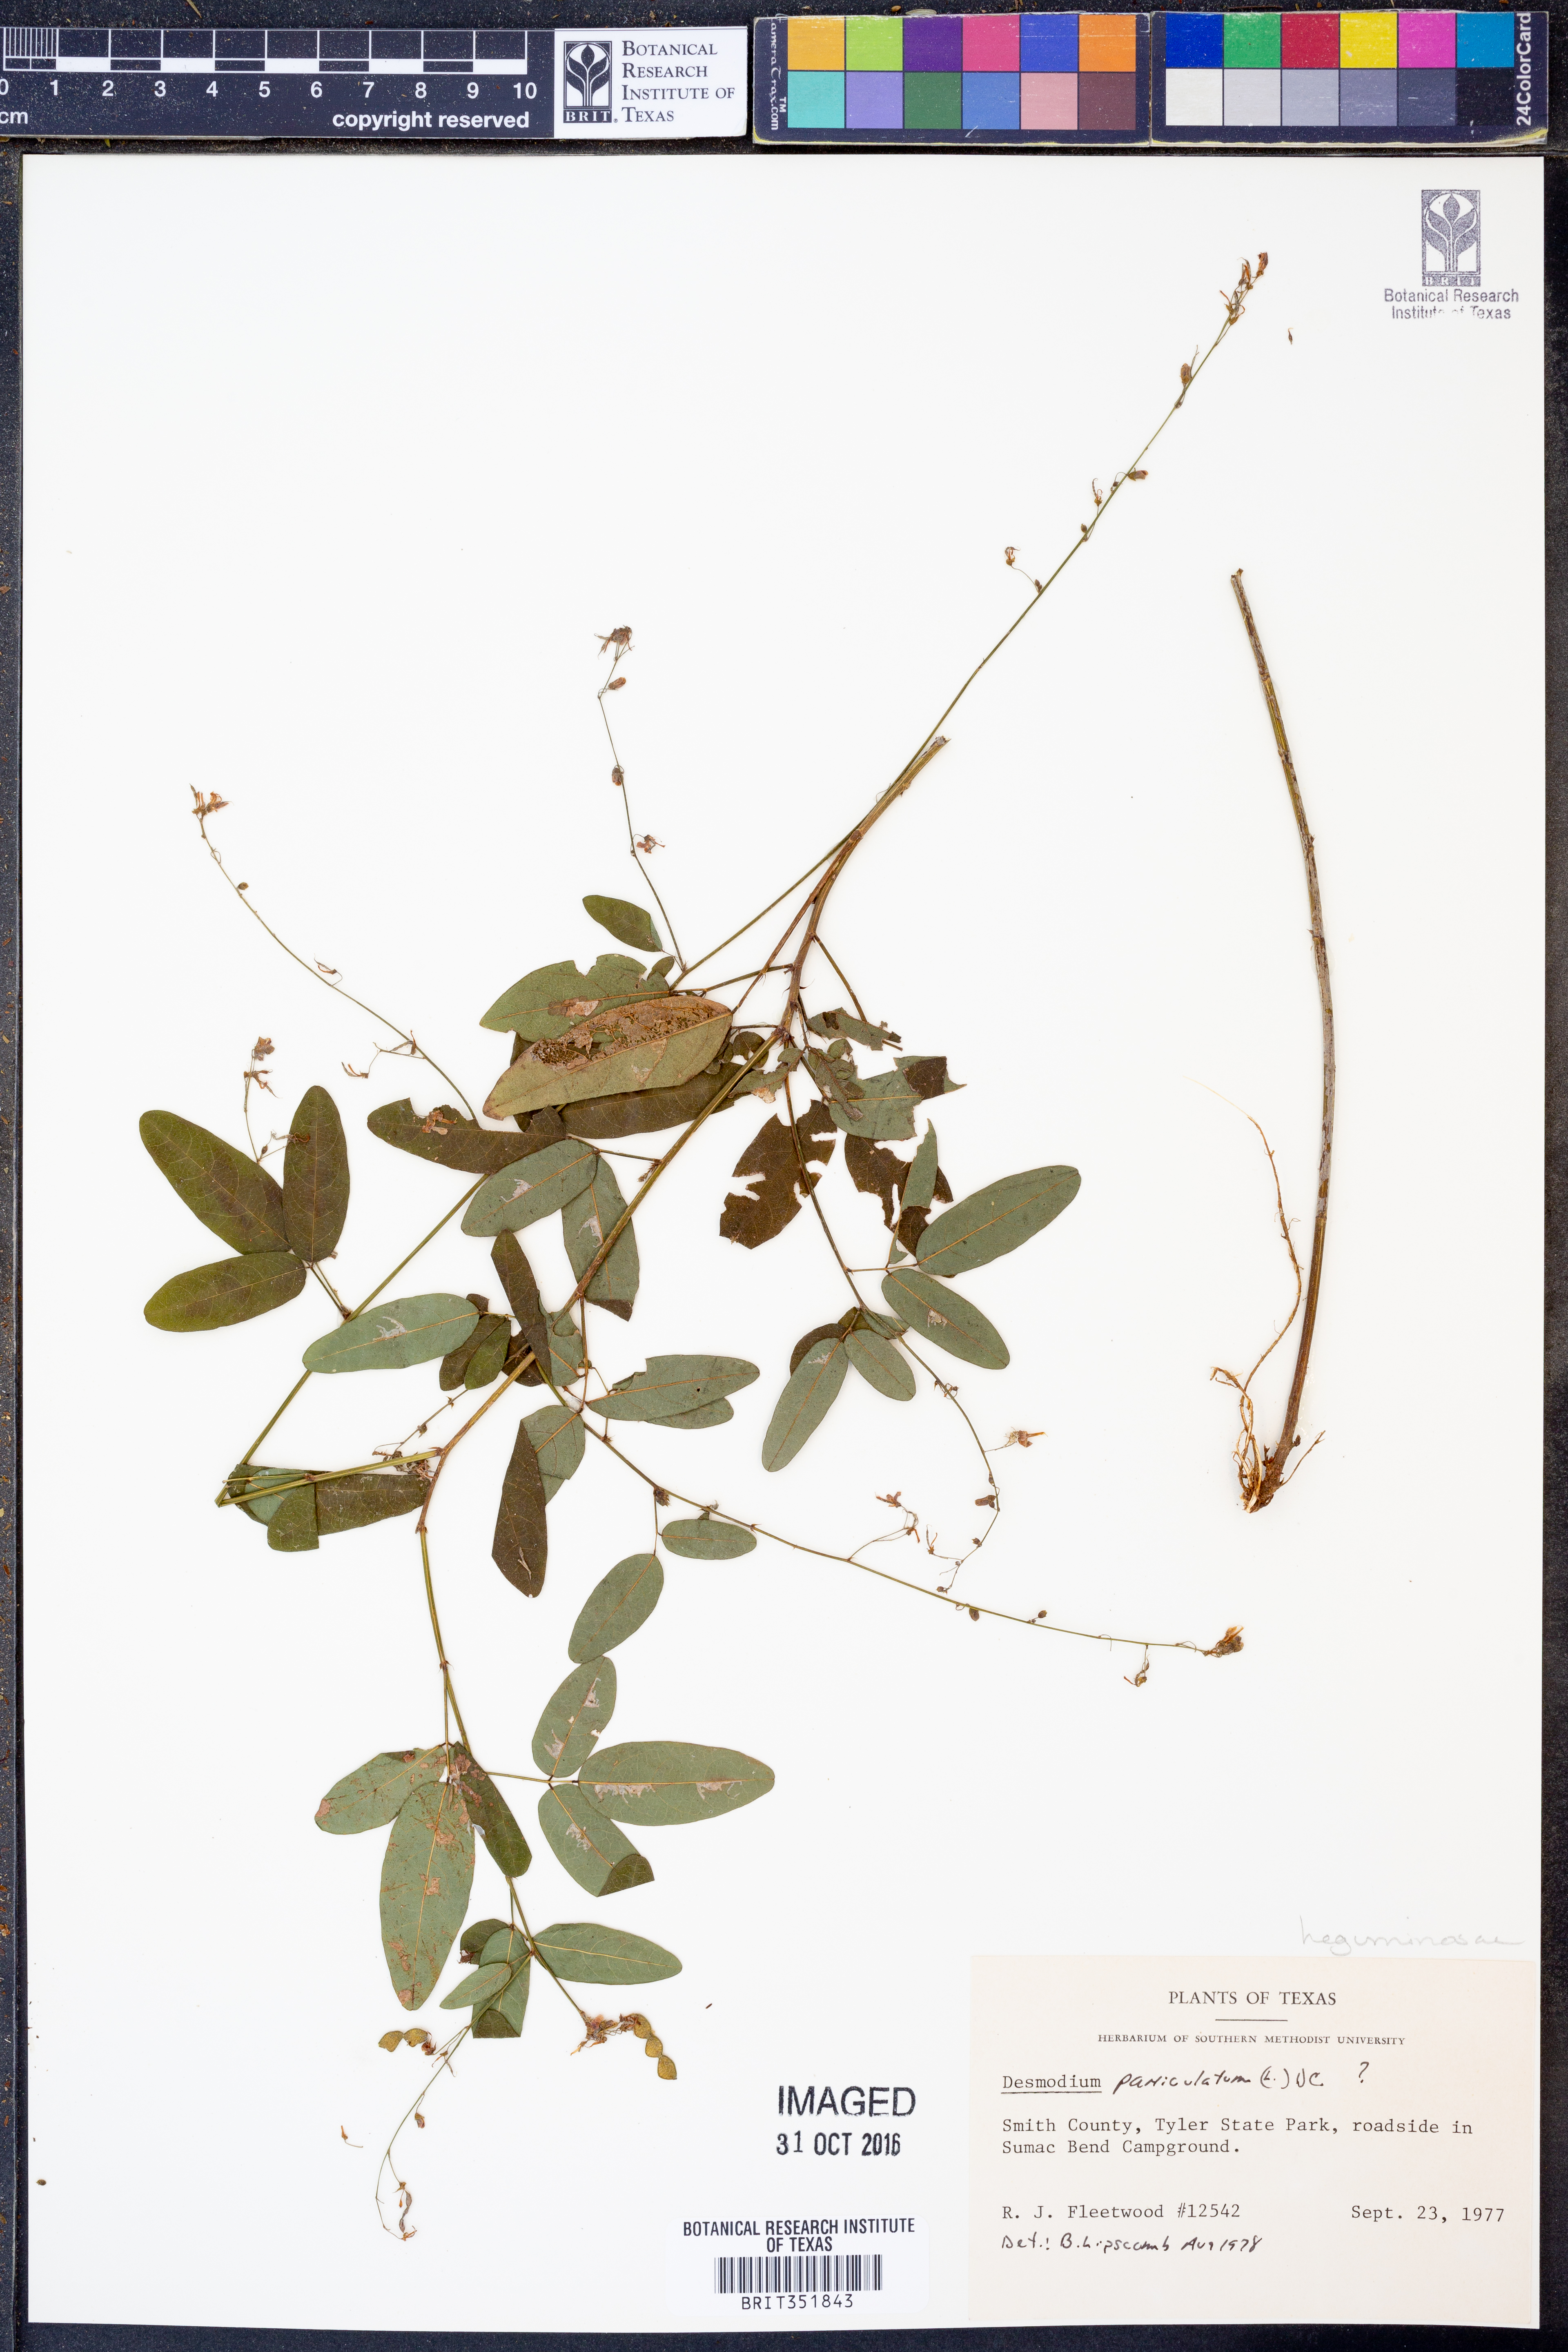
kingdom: Plantae
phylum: Tracheophyta
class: Magnoliopsida
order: Fabales
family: Fabaceae
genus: Desmodium
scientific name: Desmodium paniculatum
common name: Panicled tick-clover
